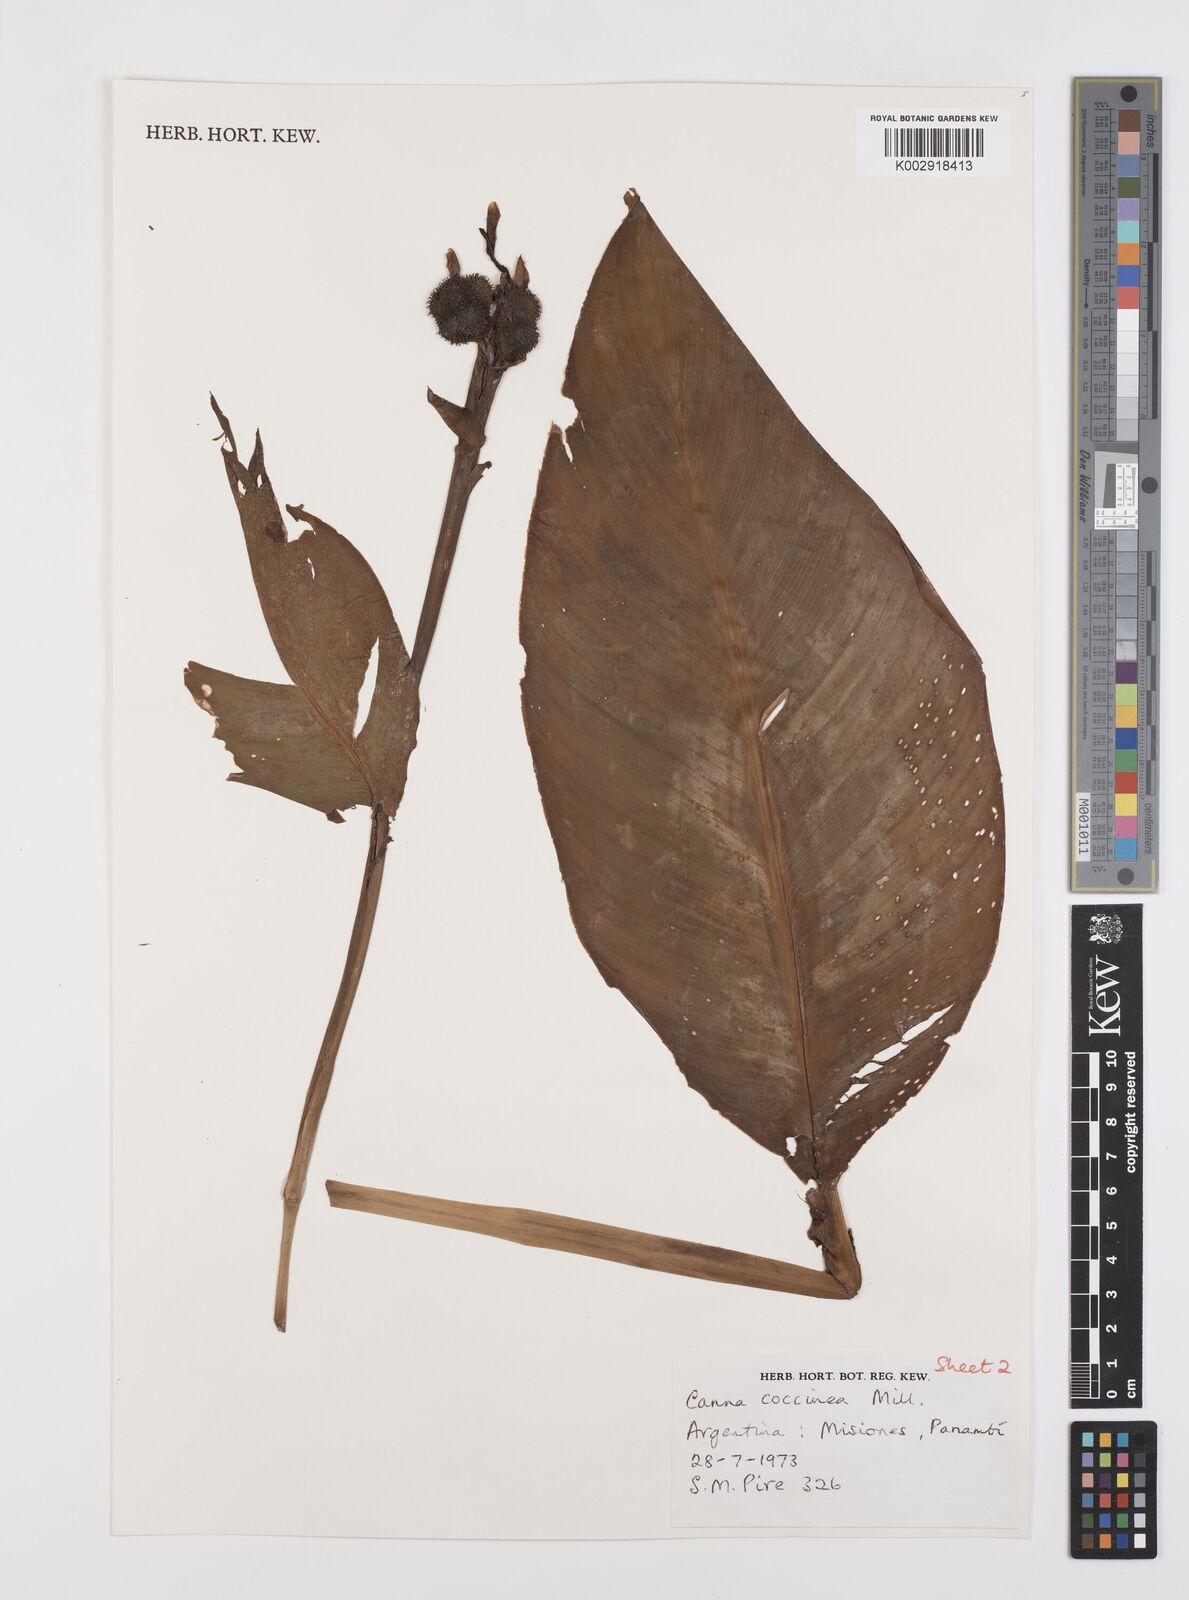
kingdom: Plantae
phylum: Tracheophyta
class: Liliopsida
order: Zingiberales
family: Cannaceae
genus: Canna
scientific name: Canna indica
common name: Indian shot
